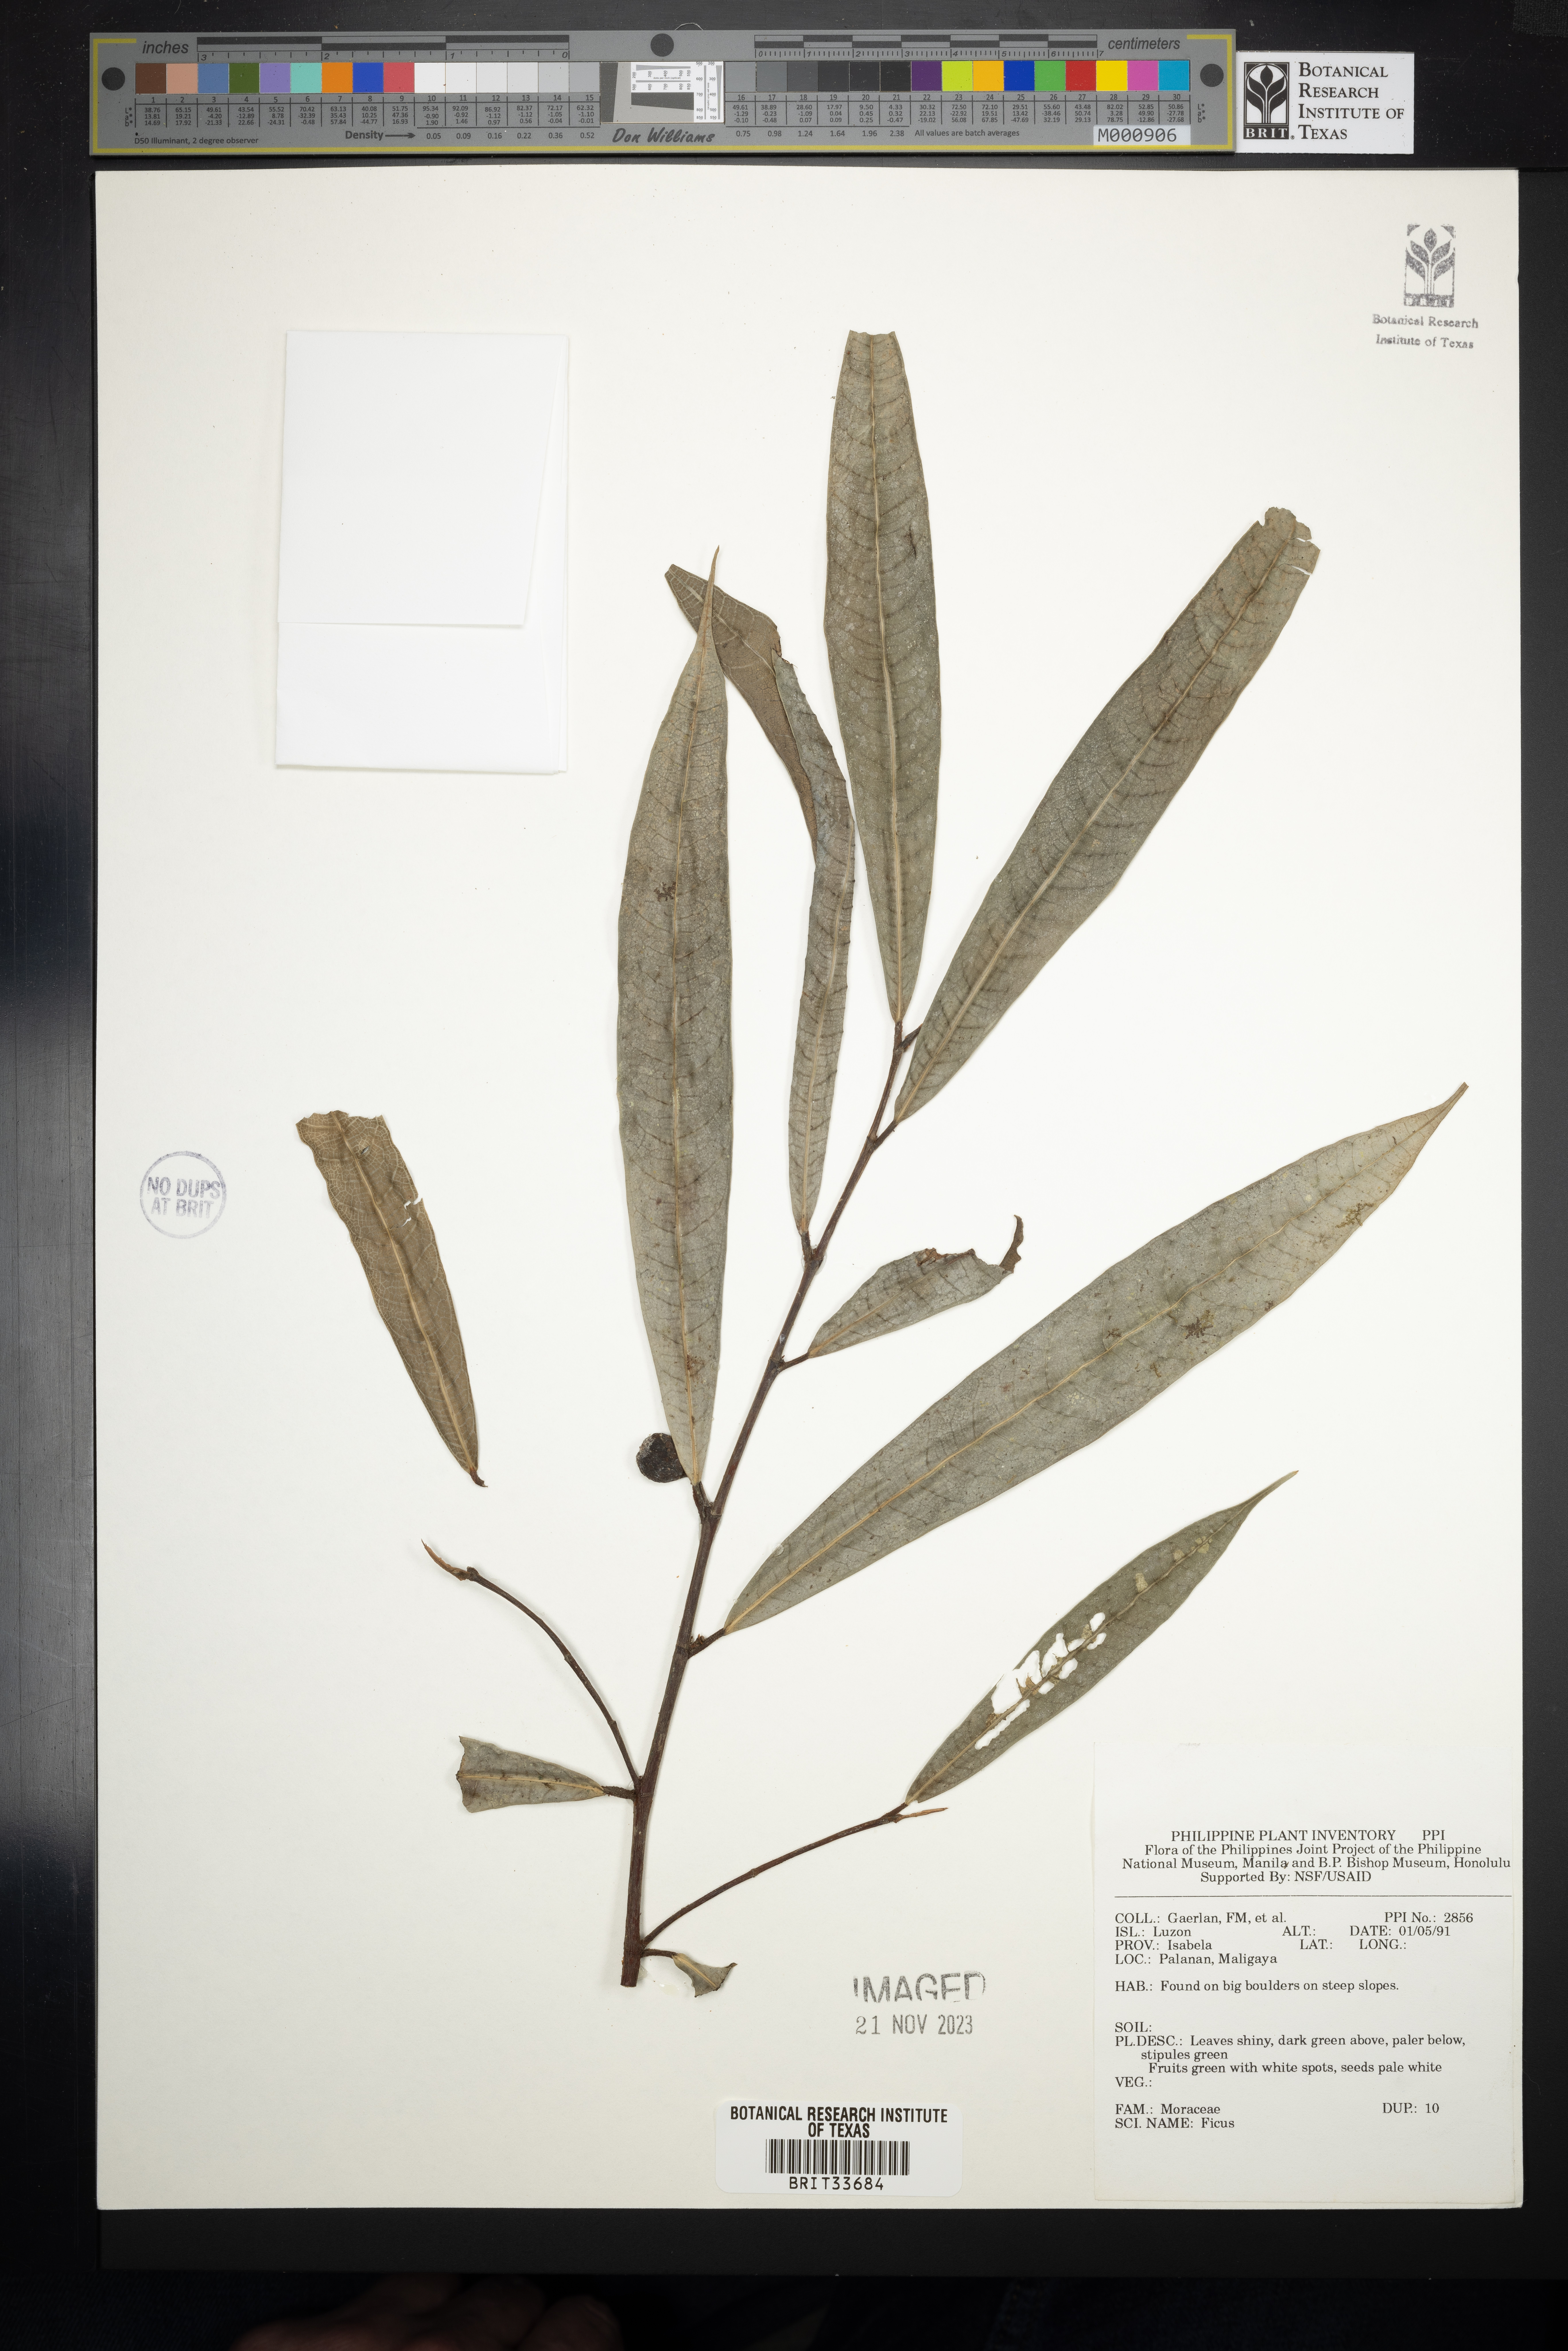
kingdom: Plantae
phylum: Tracheophyta
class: Magnoliopsida
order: Rosales
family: Moraceae
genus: Ficus
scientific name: Ficus
